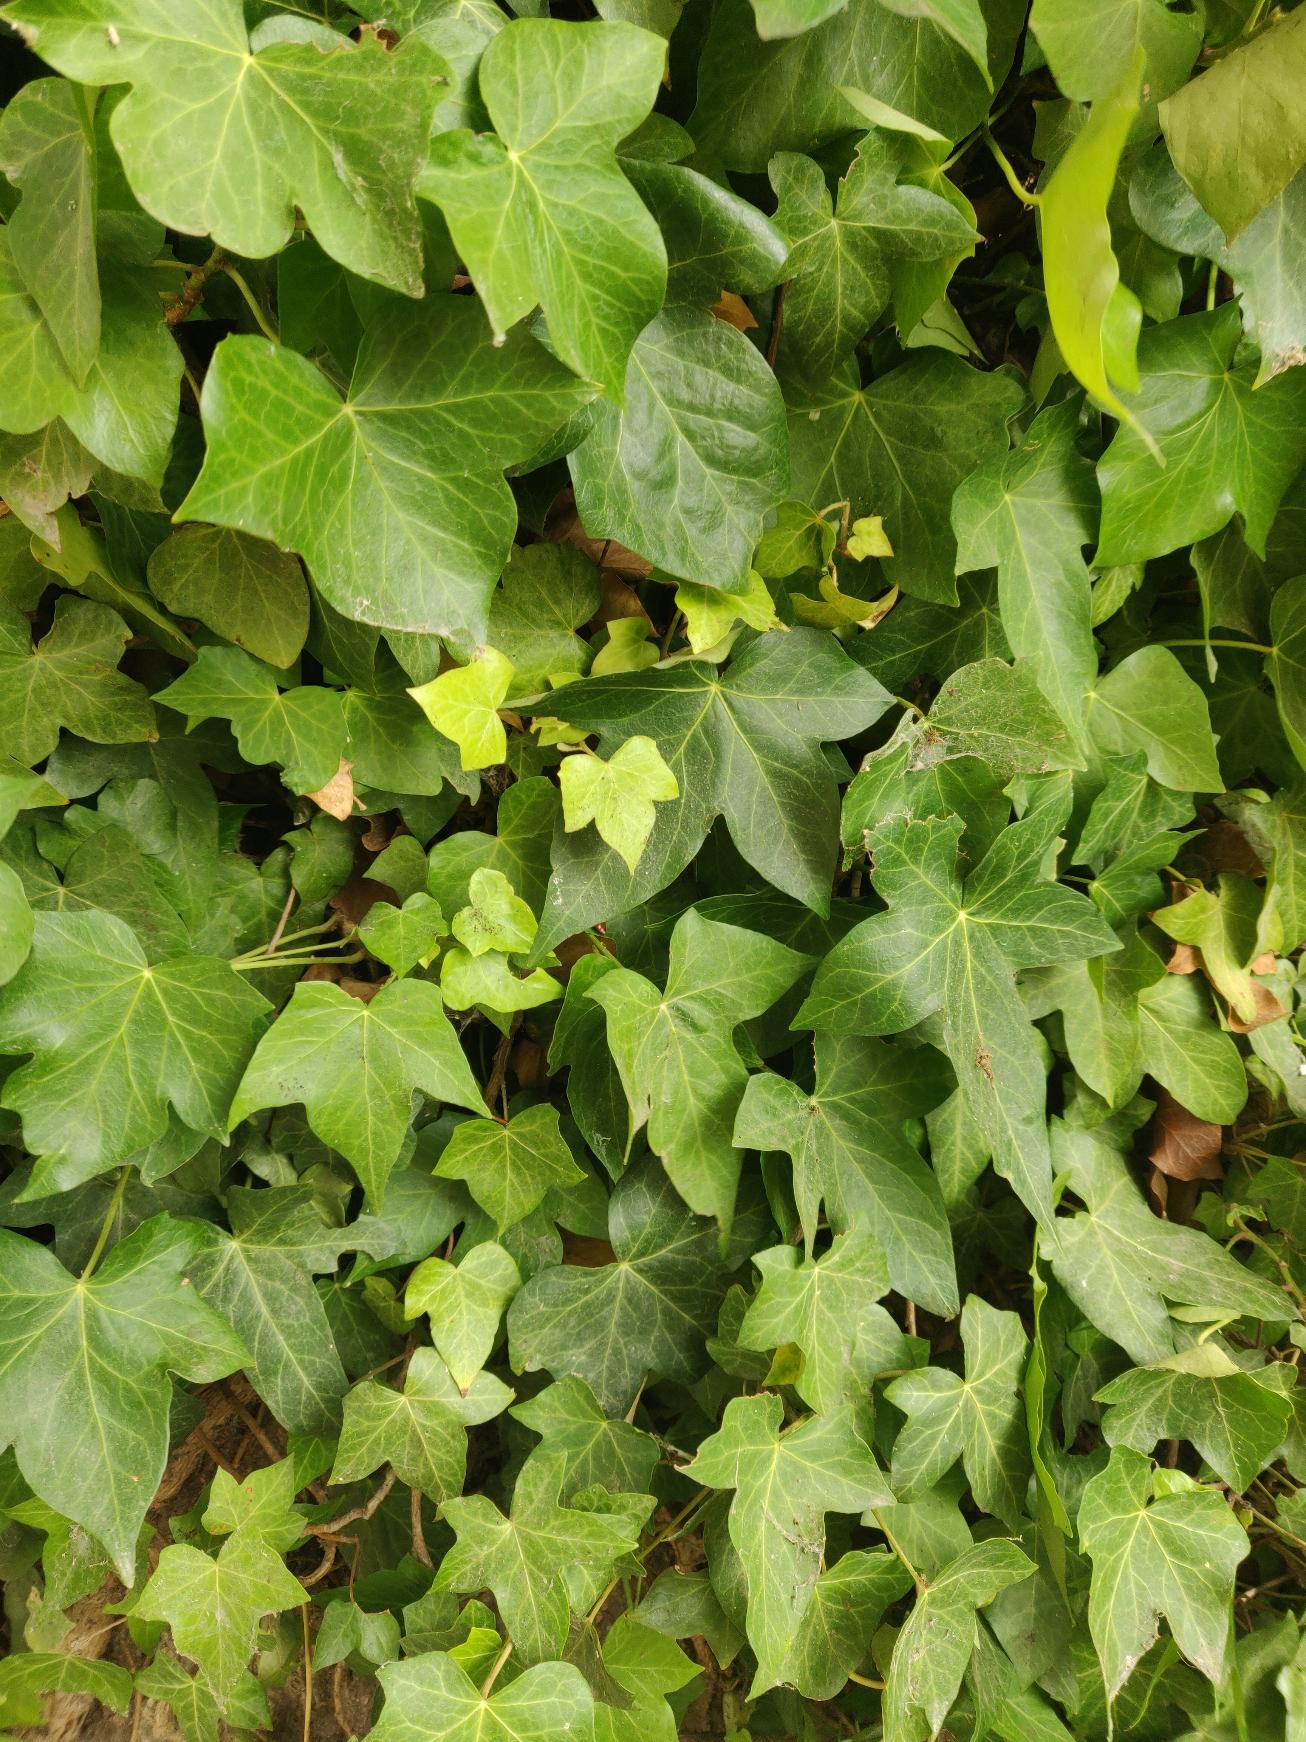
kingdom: Plantae
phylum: Tracheophyta
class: Magnoliopsida
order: Apiales
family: Araliaceae
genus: Hedera
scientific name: Hedera hibernica
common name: Irsk vedbend
